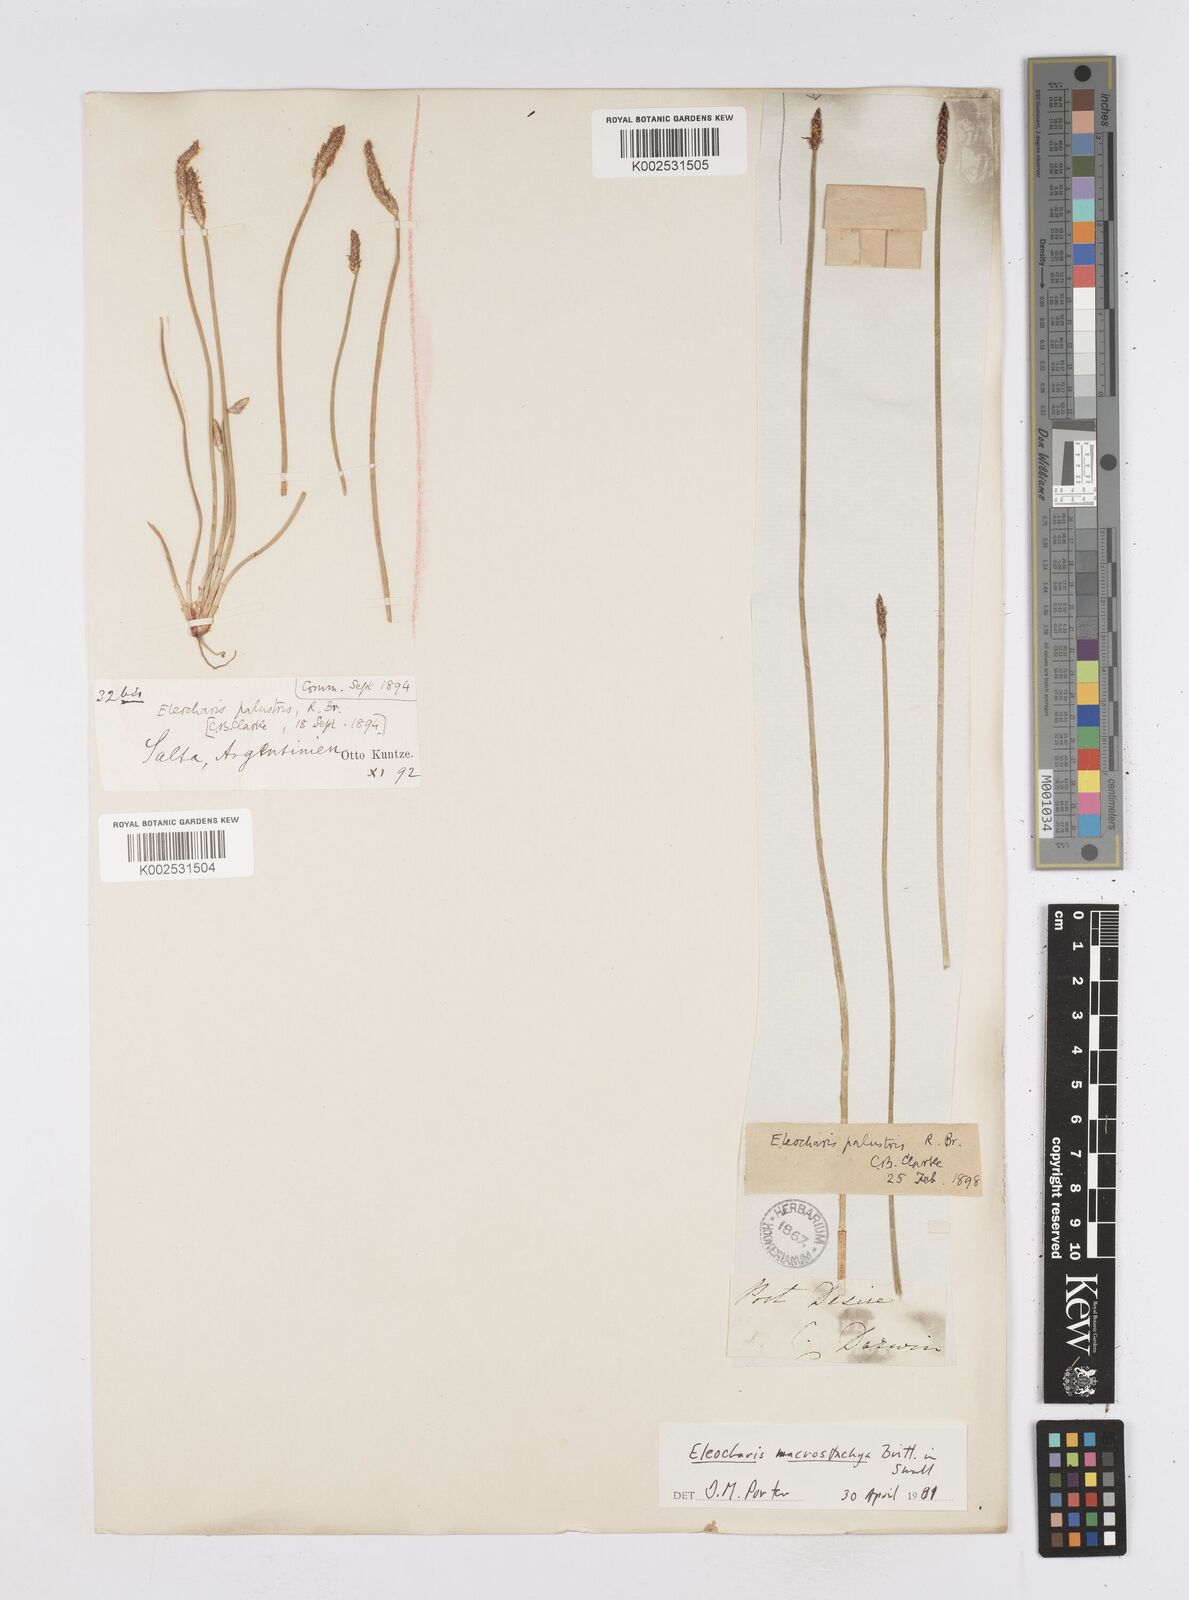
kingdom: Plantae
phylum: Tracheophyta
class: Liliopsida
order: Poales
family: Cyperaceae
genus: Eleocharis
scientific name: Eleocharis macrostachya
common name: Pale spikerush
